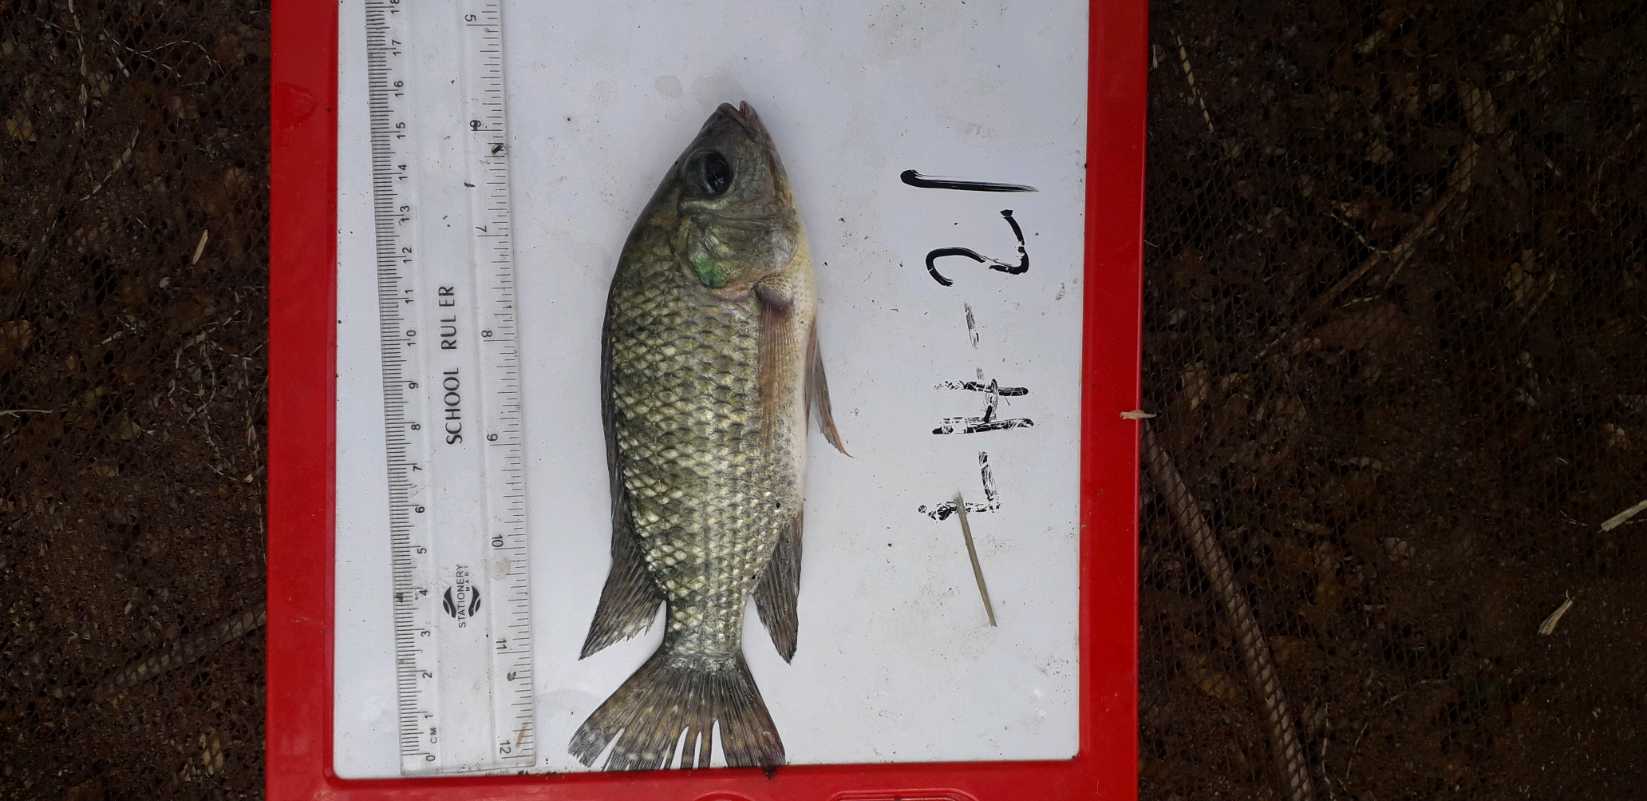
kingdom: Animalia
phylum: Chordata
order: Perciformes
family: Cichlidae
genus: Oreochromis
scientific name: Oreochromis leucostictus
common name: Blue spotted tilapia
